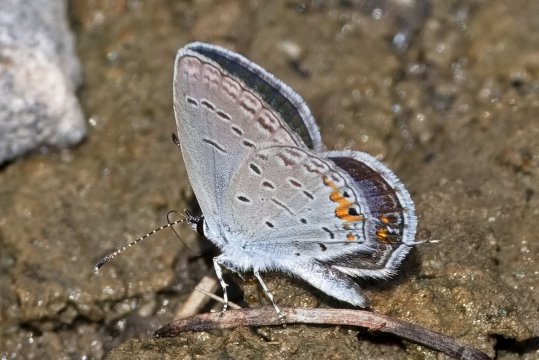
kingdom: Animalia
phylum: Arthropoda
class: Insecta
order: Lepidoptera
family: Lycaenidae
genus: Elkalyce
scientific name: Elkalyce comyntas
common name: Eastern Tailed-Blue
